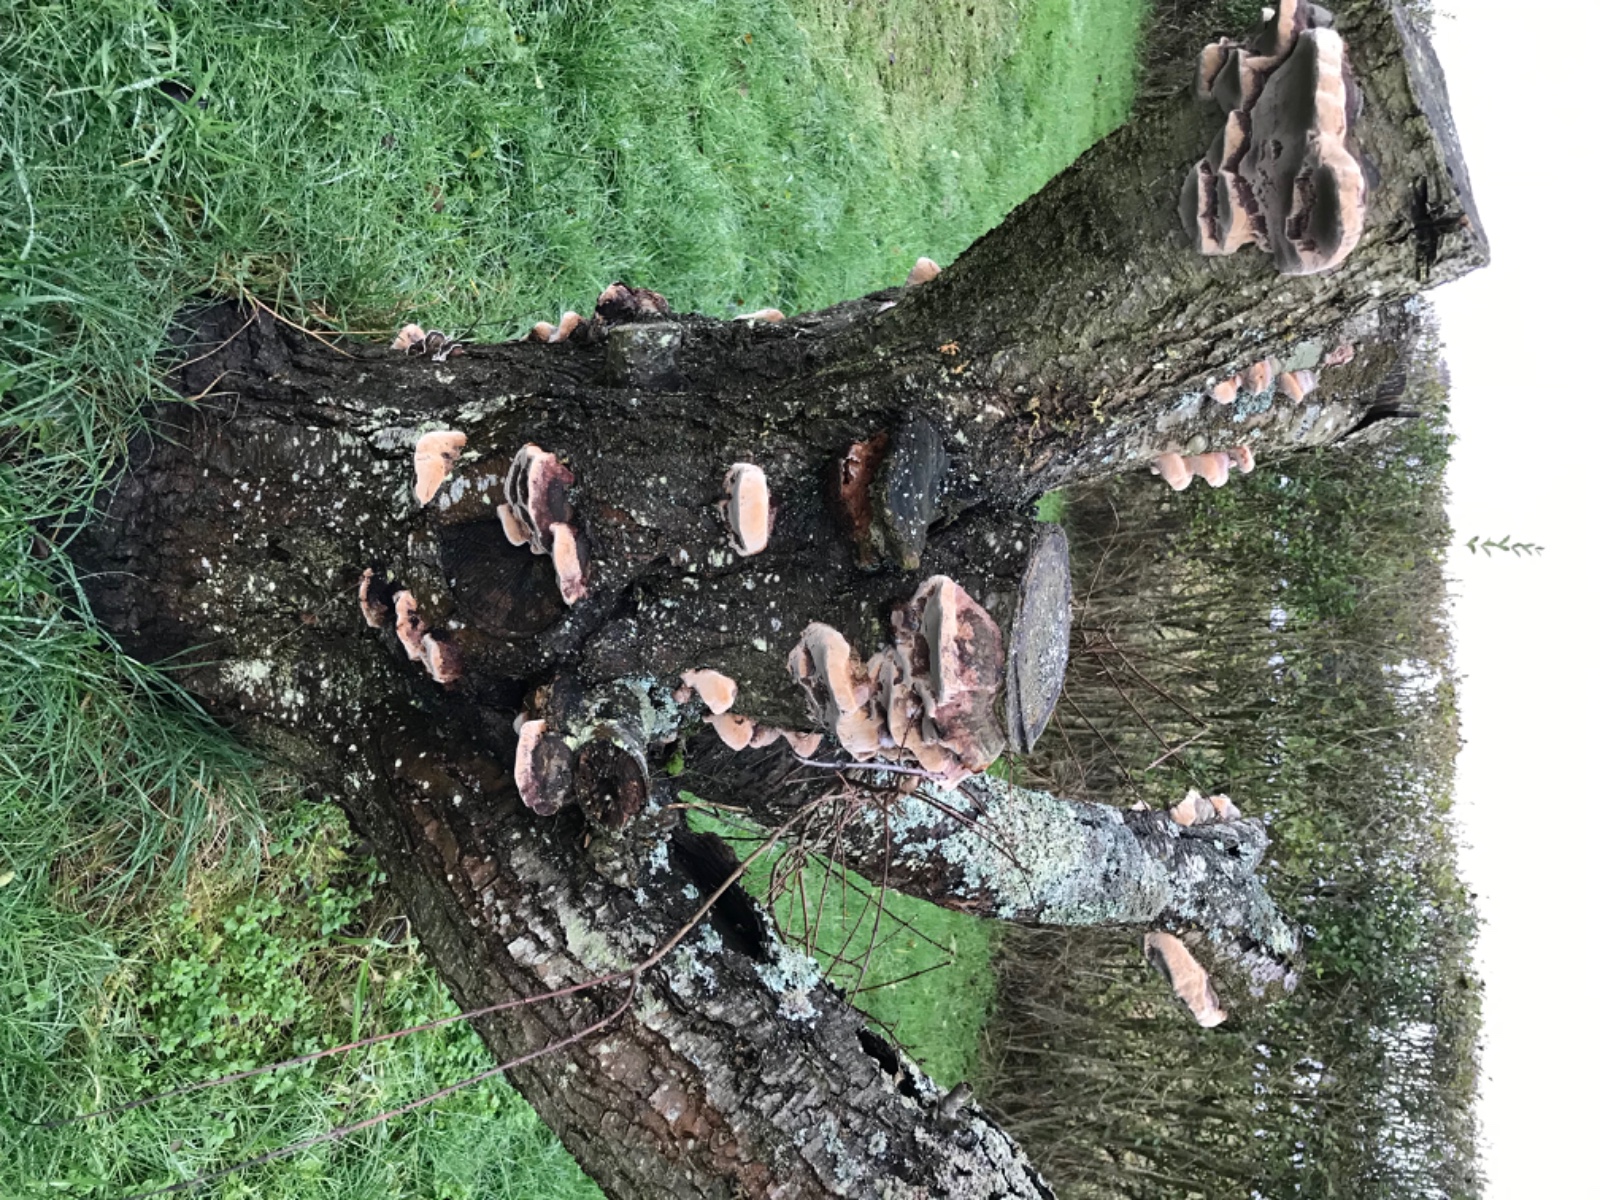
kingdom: Fungi
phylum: Basidiomycota
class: Agaricomycetes
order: Hymenochaetales
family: Hymenochaetaceae
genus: Phellinus
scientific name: Phellinus pomaceus
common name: blomme-ildporesvamp
